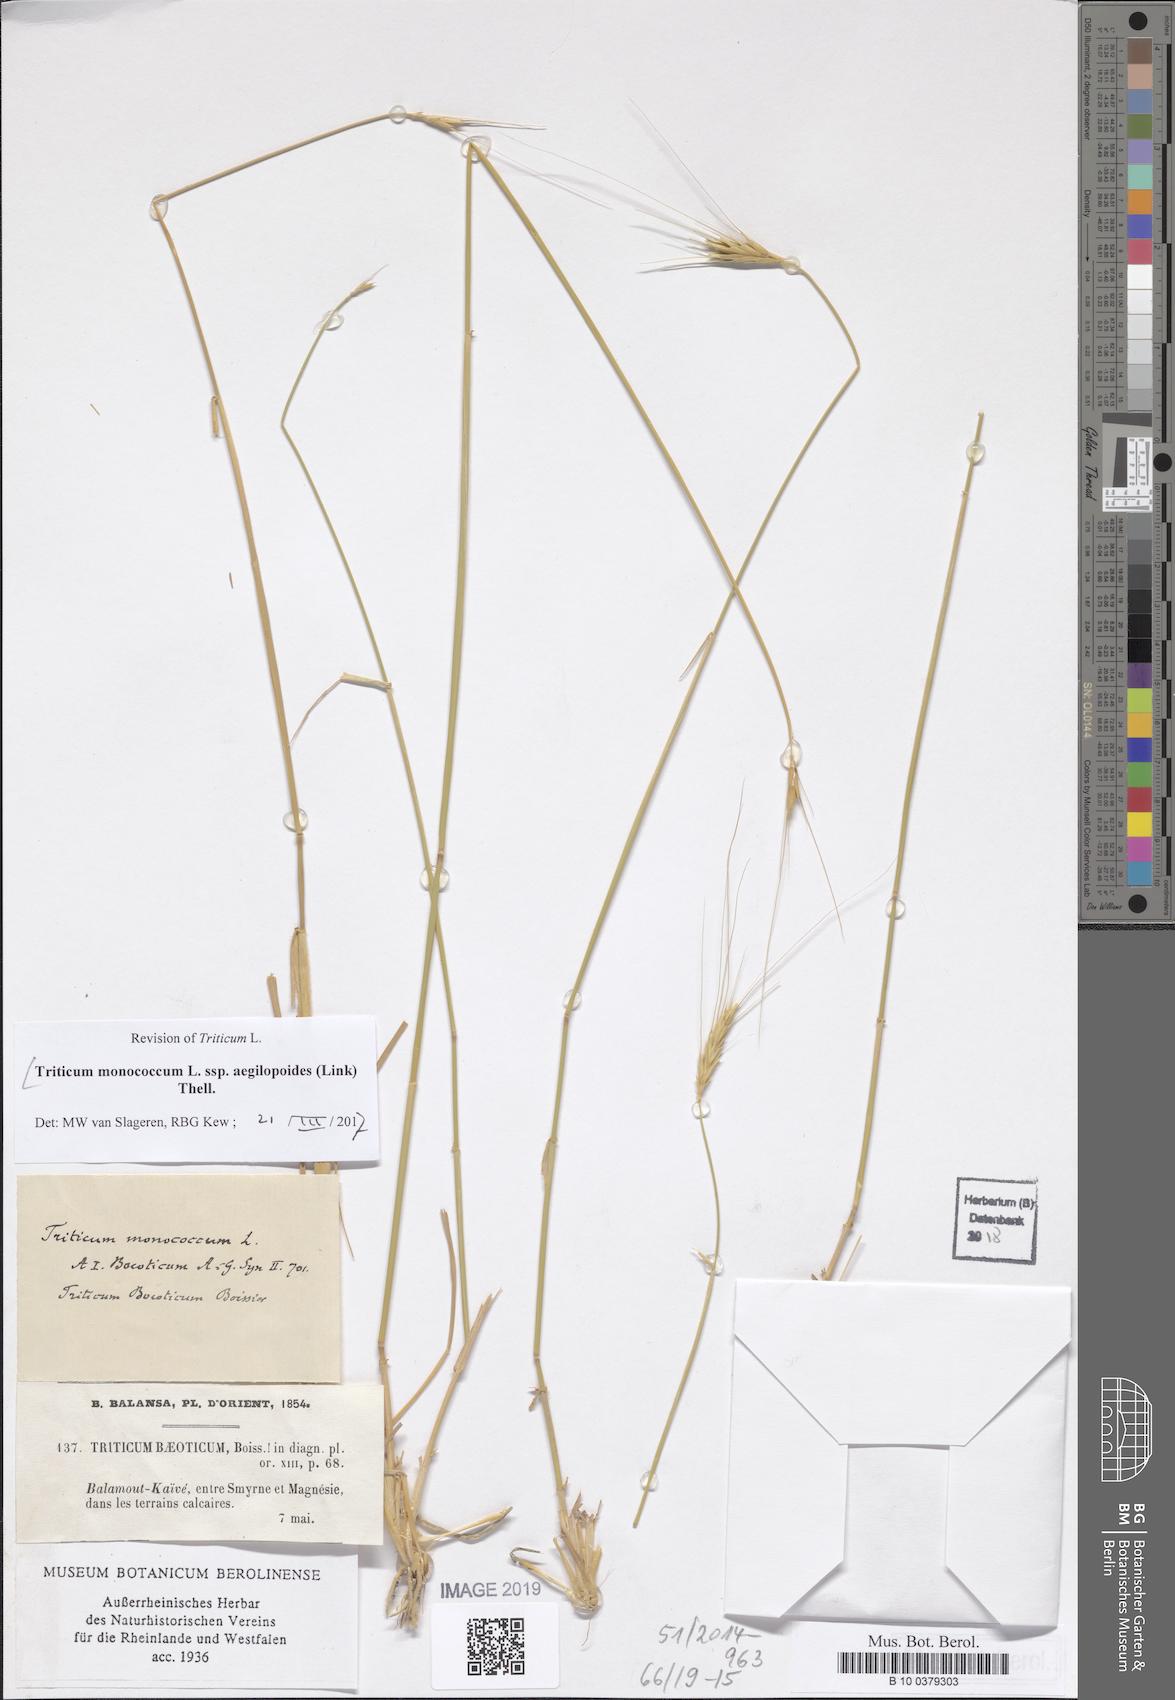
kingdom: Plantae
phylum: Tracheophyta
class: Liliopsida
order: Poales
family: Poaceae
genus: Triticum
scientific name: Triticum monococcum
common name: Einkorn
